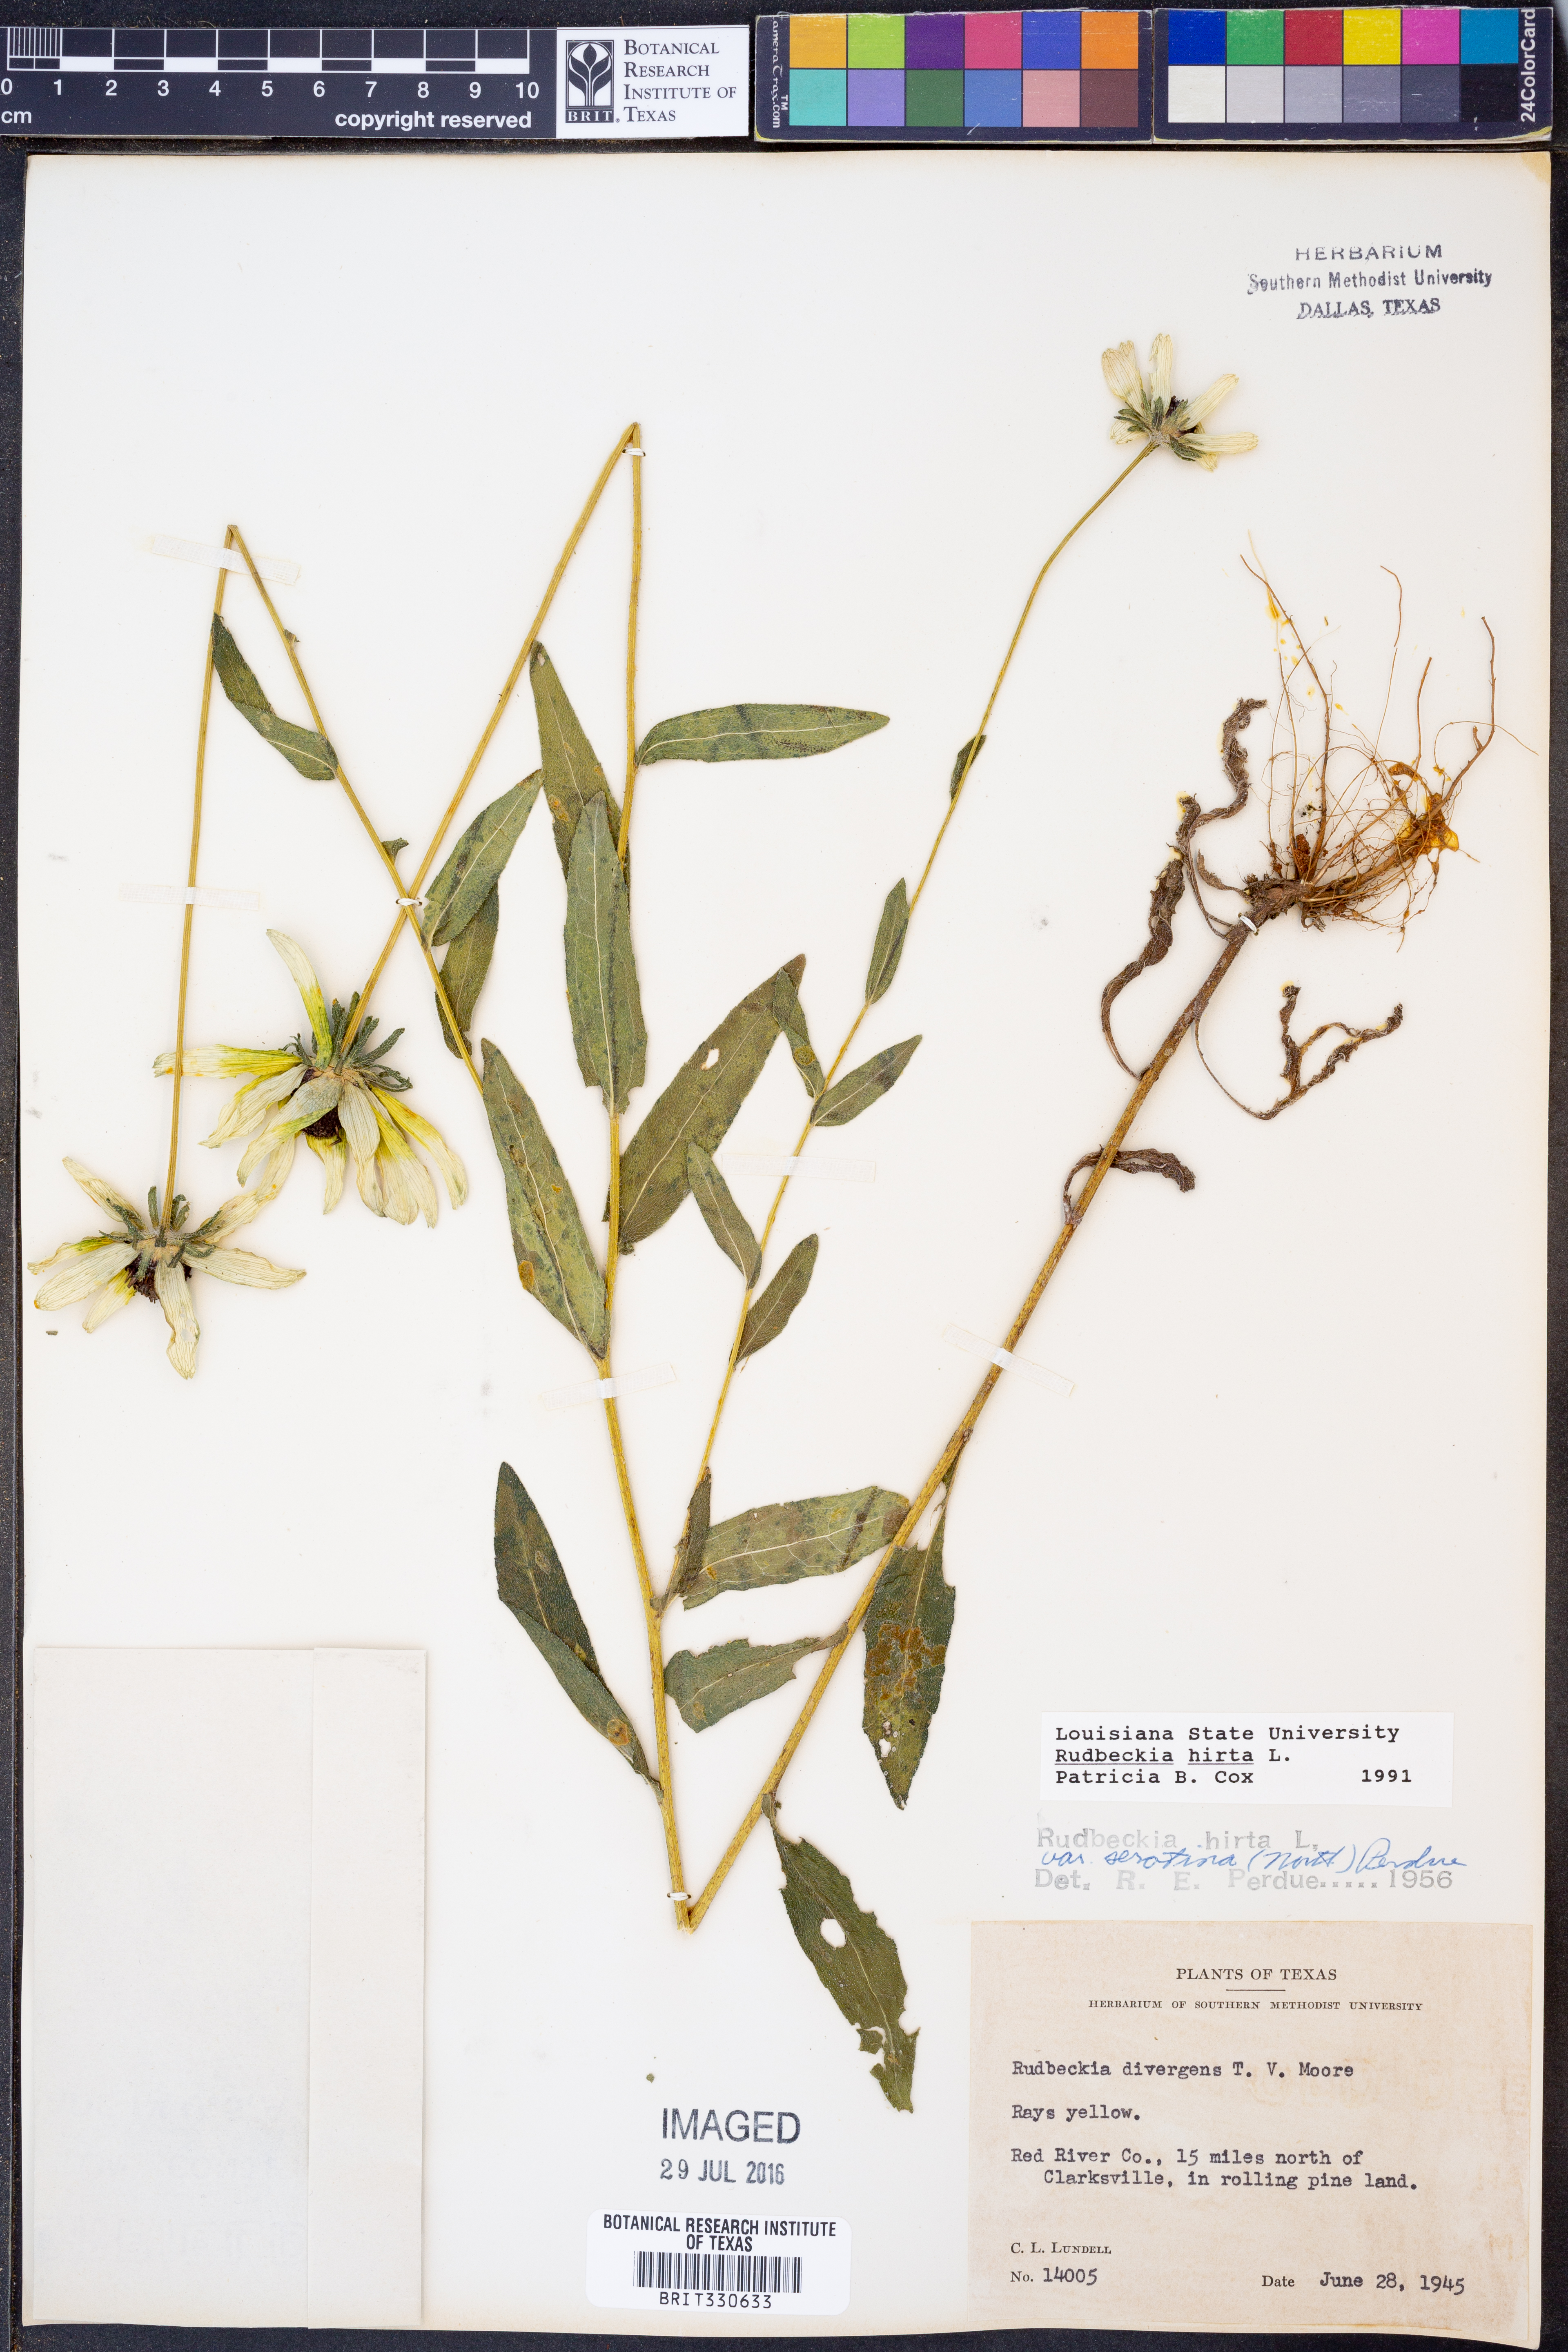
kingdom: Plantae
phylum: Tracheophyta
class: Magnoliopsida
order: Asterales
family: Asteraceae
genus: Rudbeckia
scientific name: Rudbeckia hirta
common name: Black-eyed-susan
